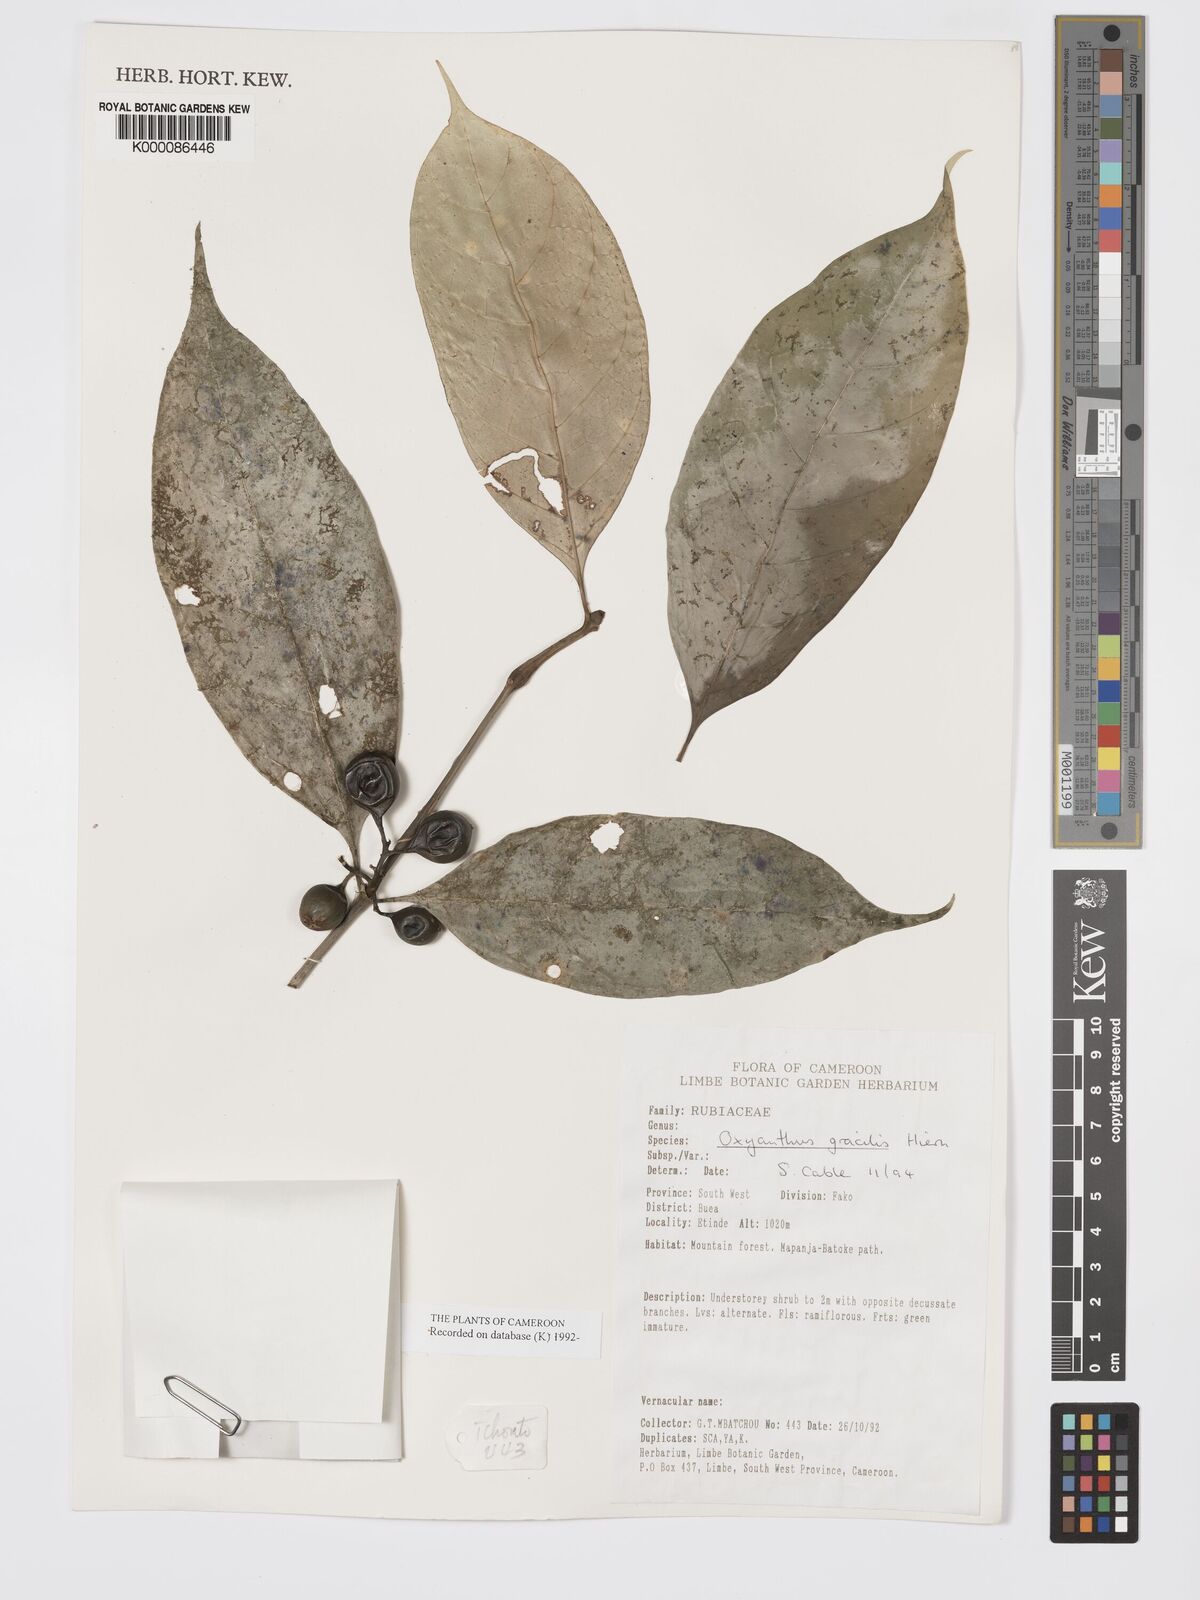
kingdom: Plantae
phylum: Tracheophyta
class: Magnoliopsida
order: Gentianales
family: Rubiaceae
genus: Oxyanthus
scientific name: Oxyanthus gracilis
